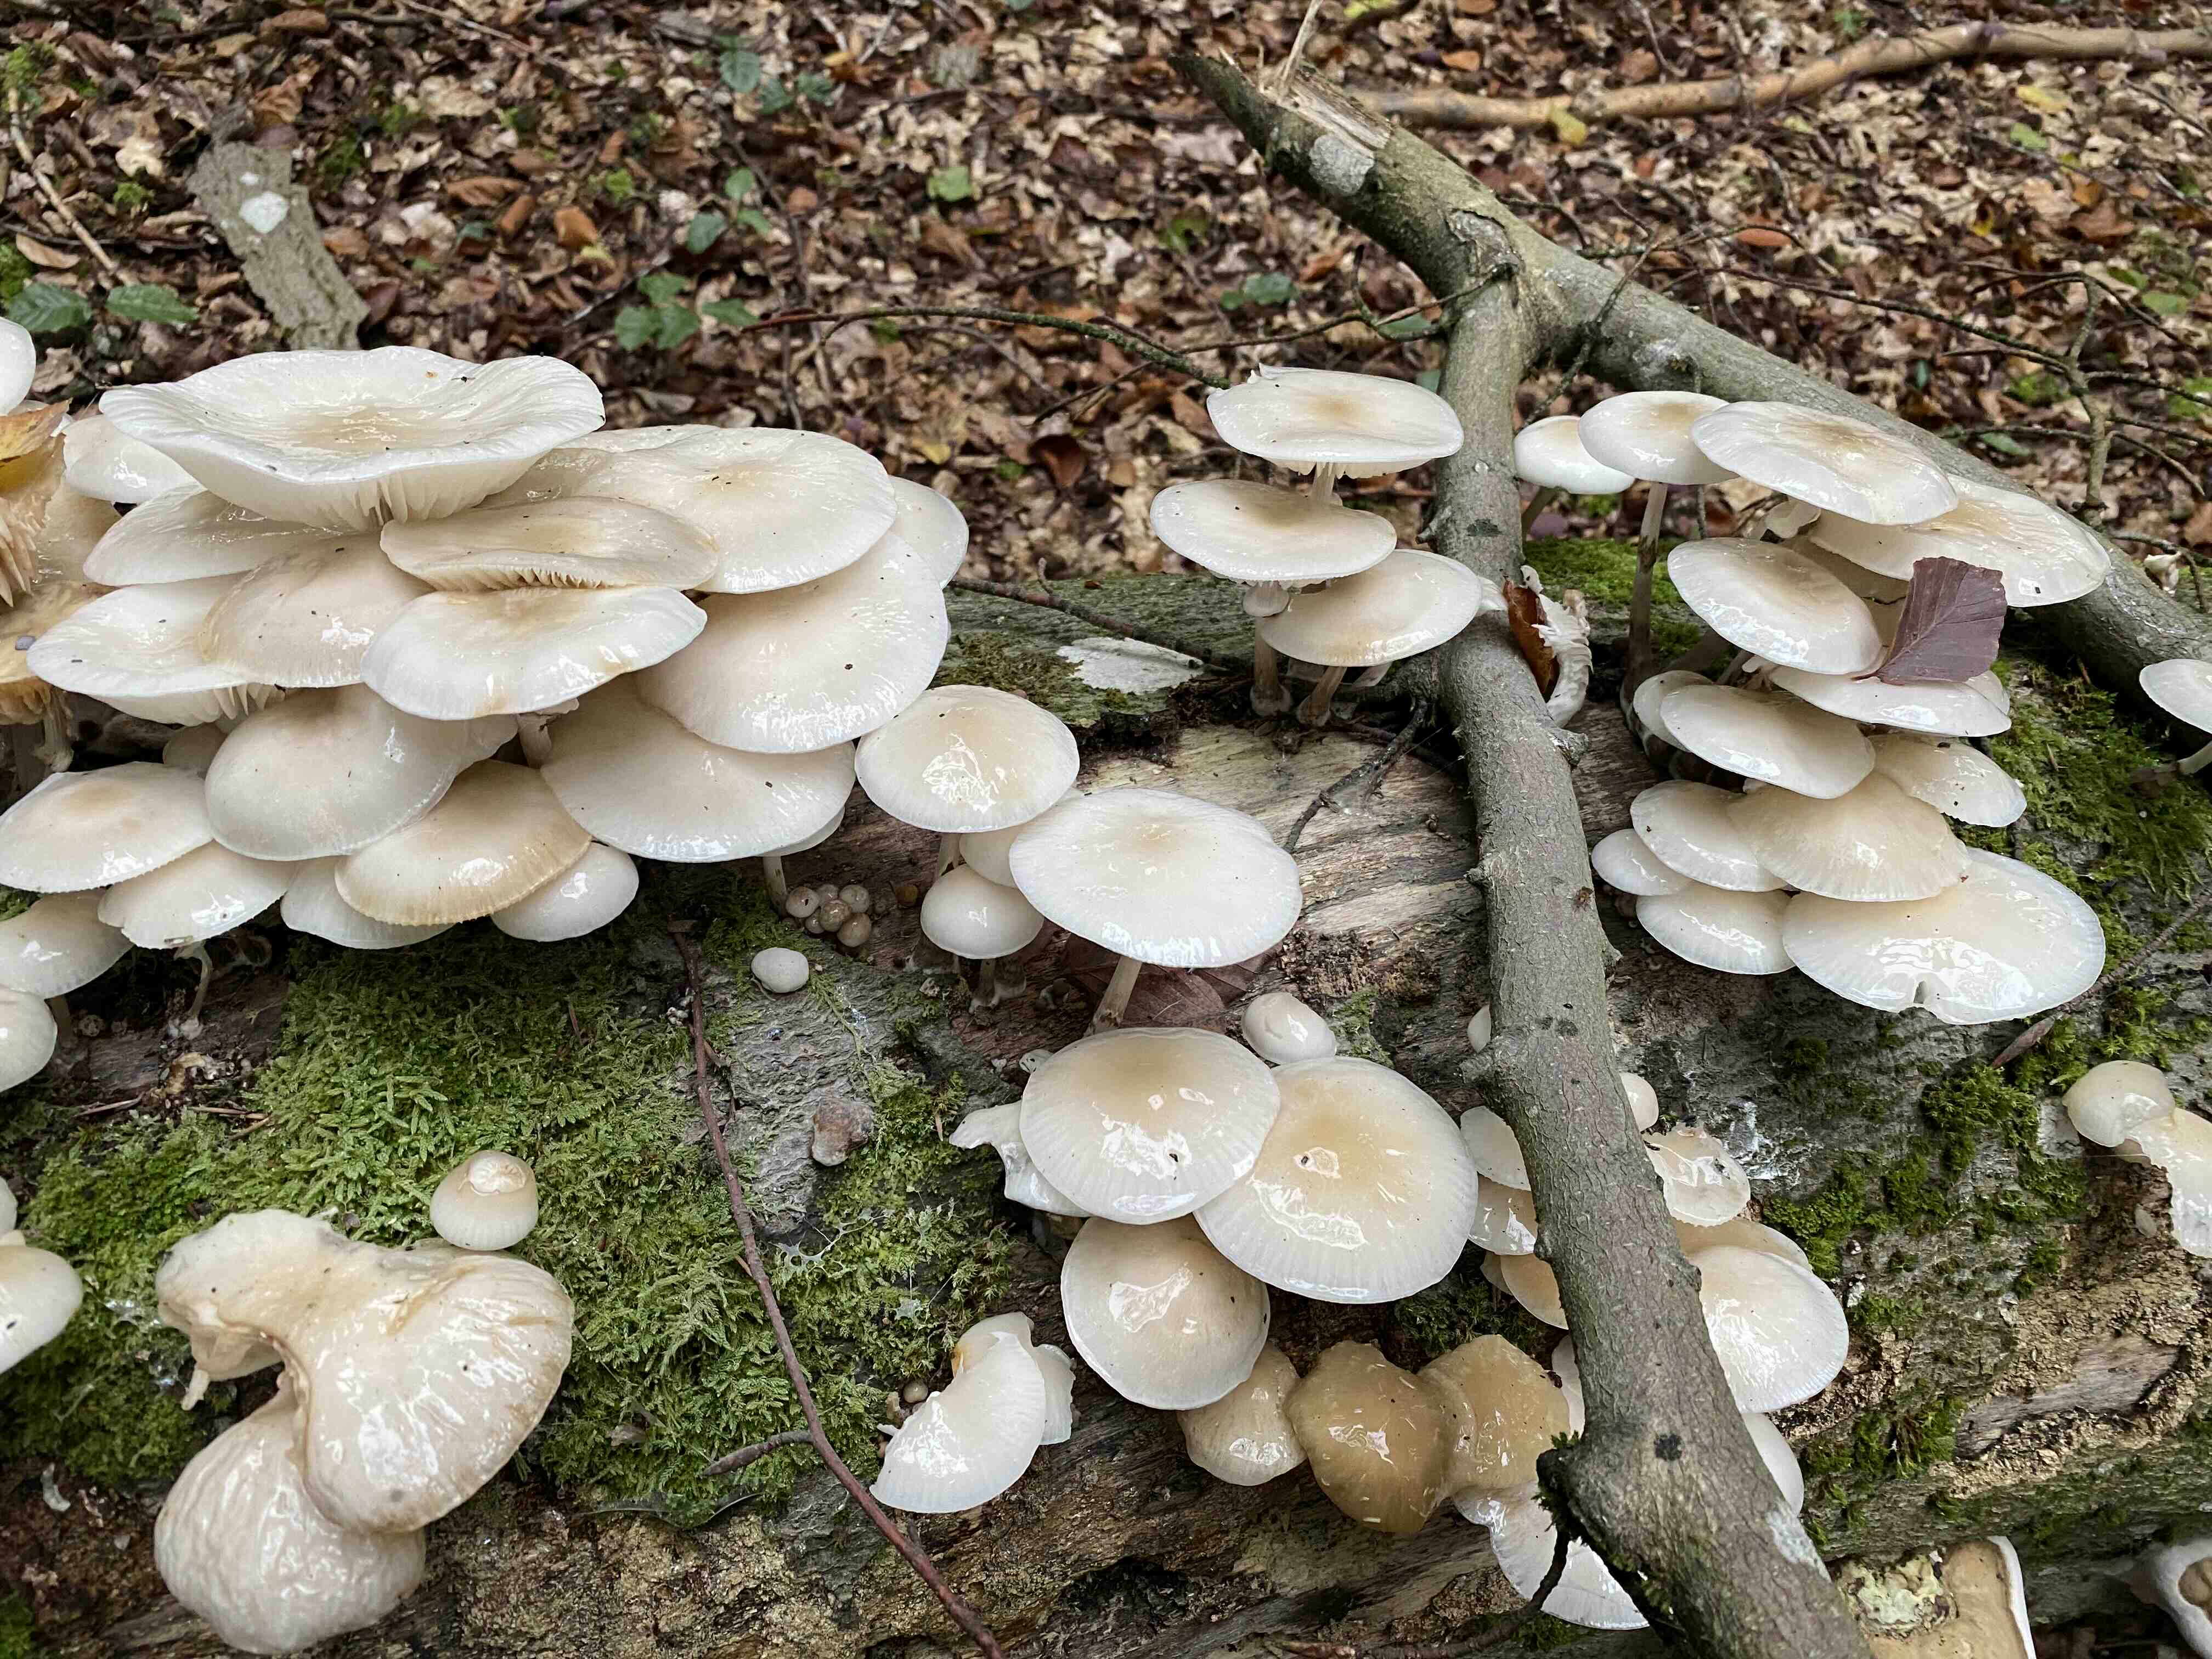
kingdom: Fungi
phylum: Basidiomycota
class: Agaricomycetes
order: Agaricales
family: Physalacriaceae
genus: Mucidula
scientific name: Mucidula mucida
